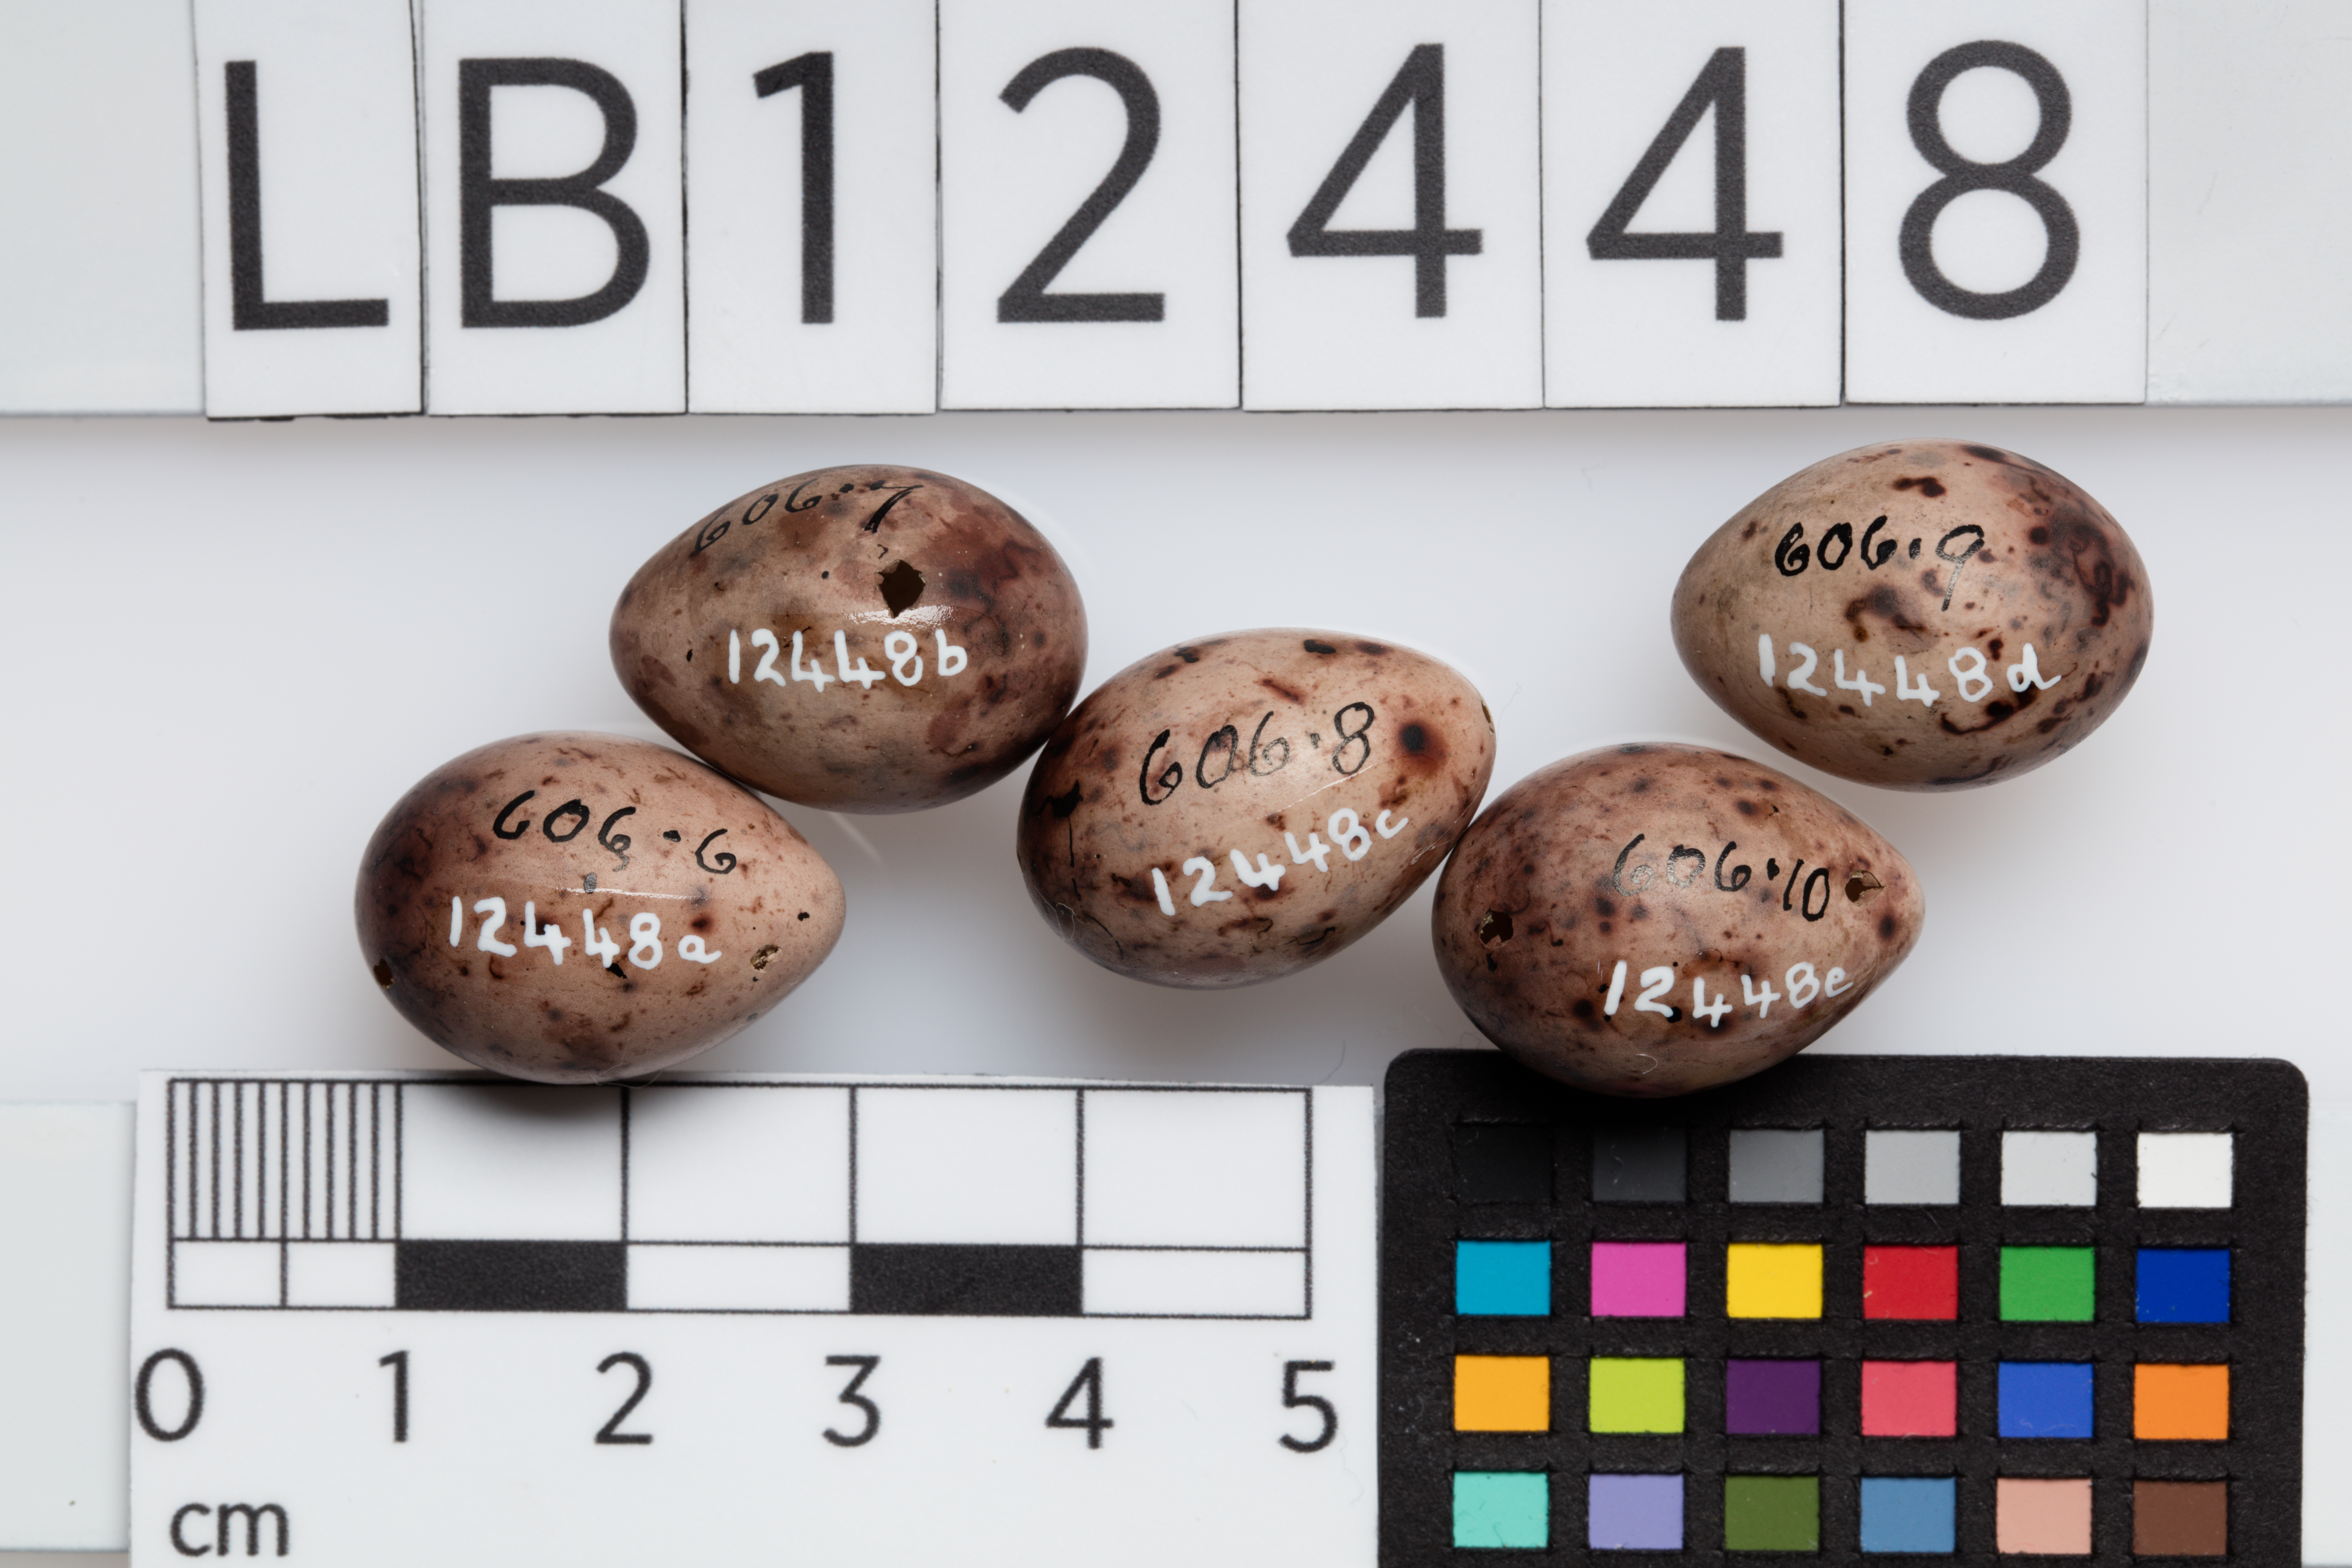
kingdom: Animalia
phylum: Chordata
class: Aves
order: Passeriformes
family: Motacillidae
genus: Anthus
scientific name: Anthus pratensis
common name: Meadow pipit
